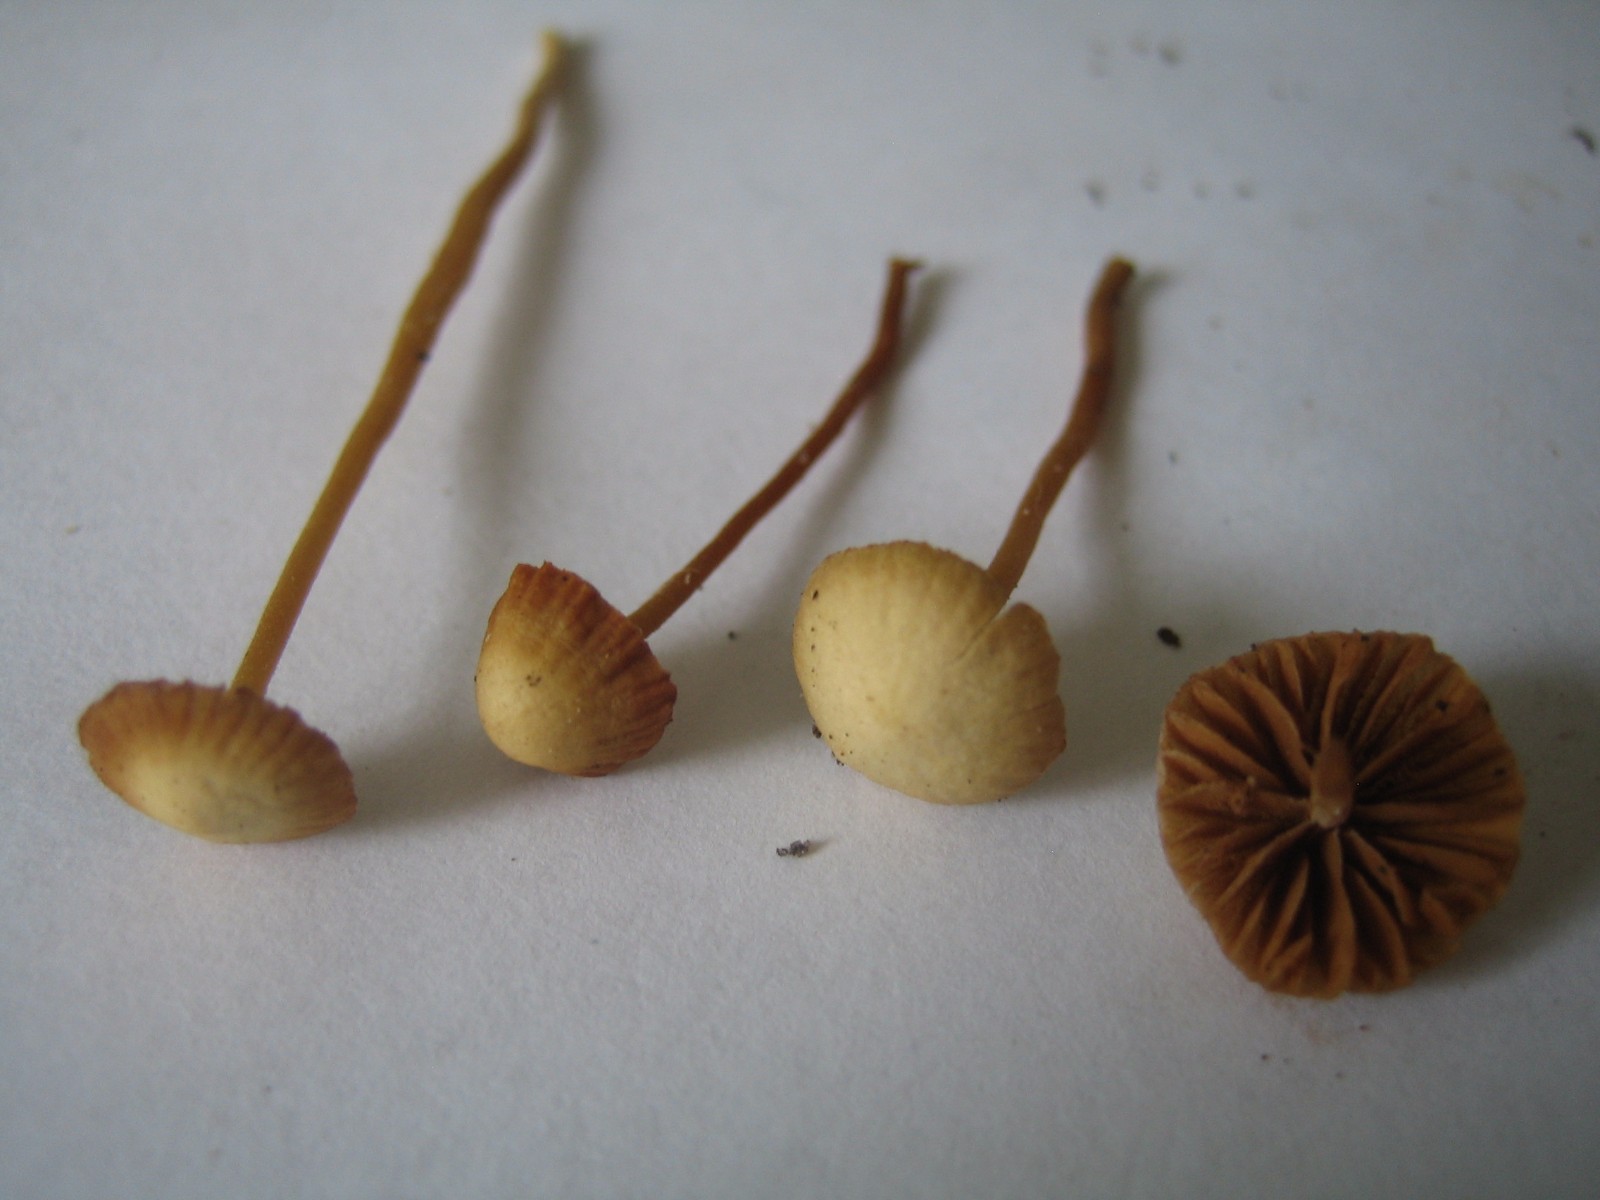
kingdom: Fungi
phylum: Basidiomycota
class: Agaricomycetes
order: Agaricales
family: Hymenogastraceae
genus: Galerina
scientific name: Galerina
